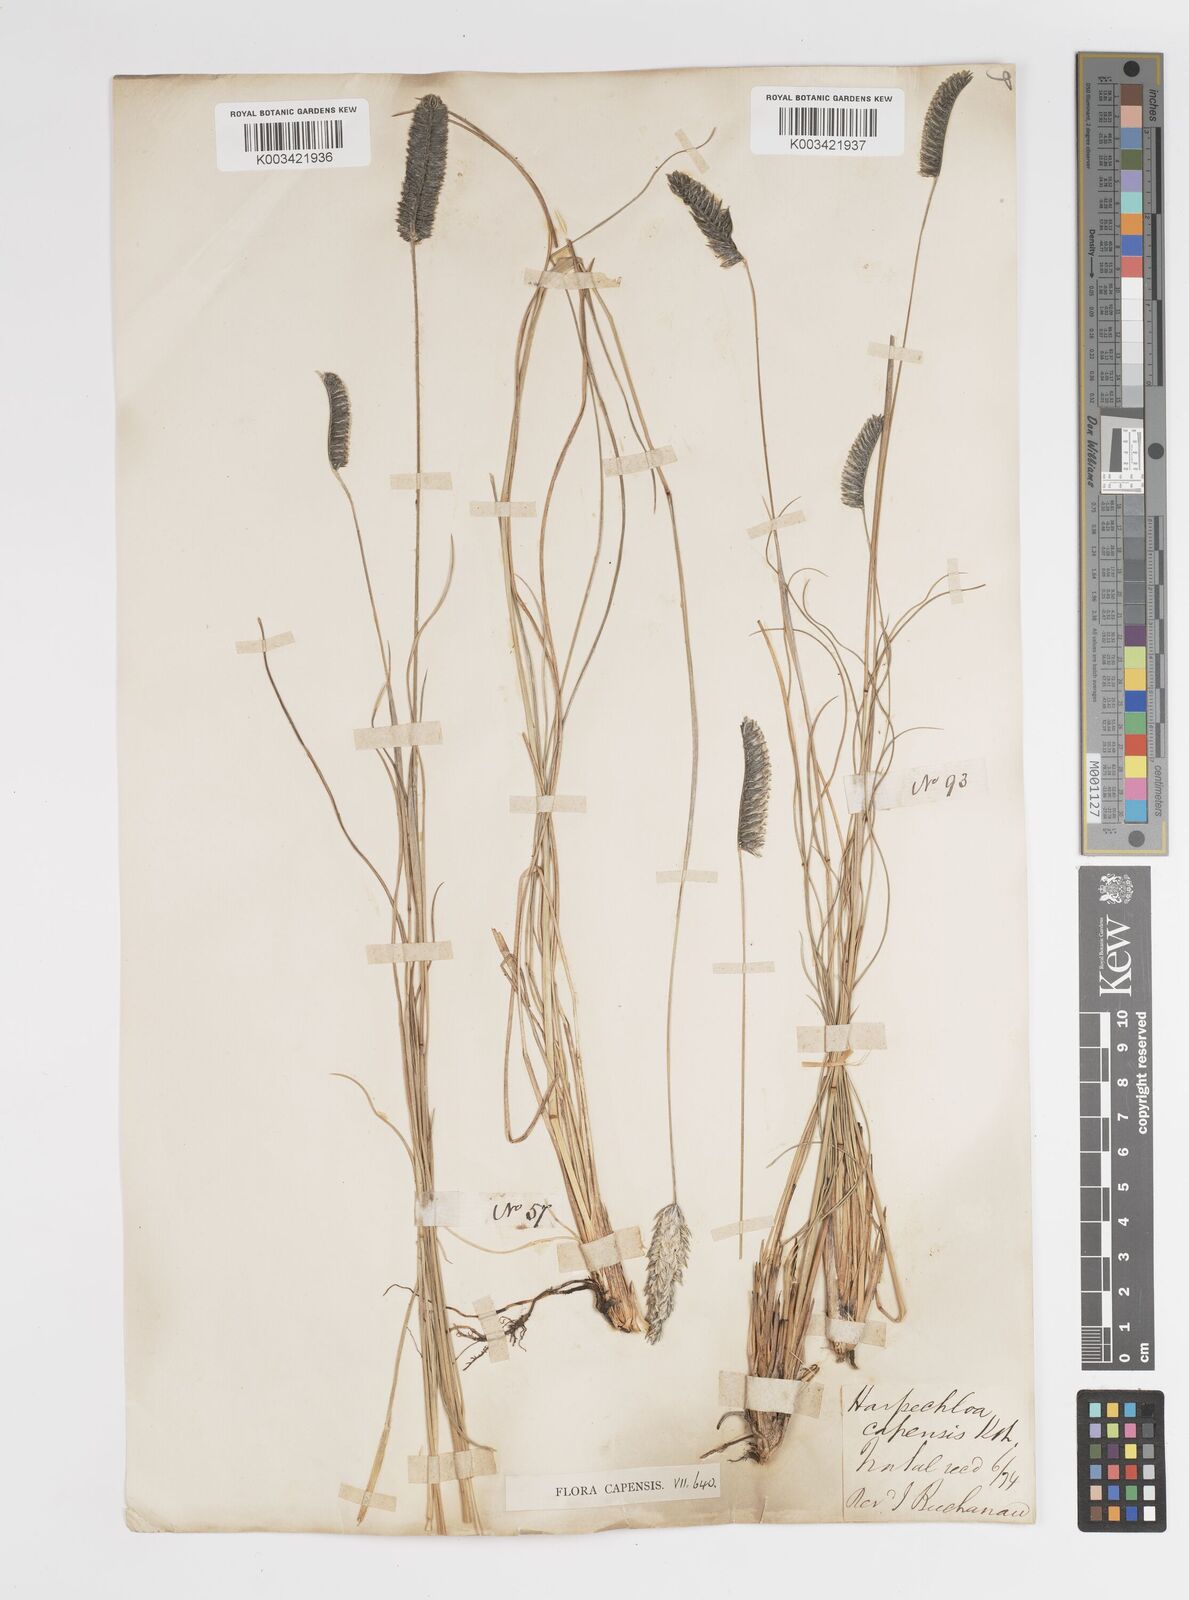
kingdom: Plantae
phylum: Tracheophyta
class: Liliopsida
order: Poales
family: Poaceae
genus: Harpochloa
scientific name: Harpochloa falx
